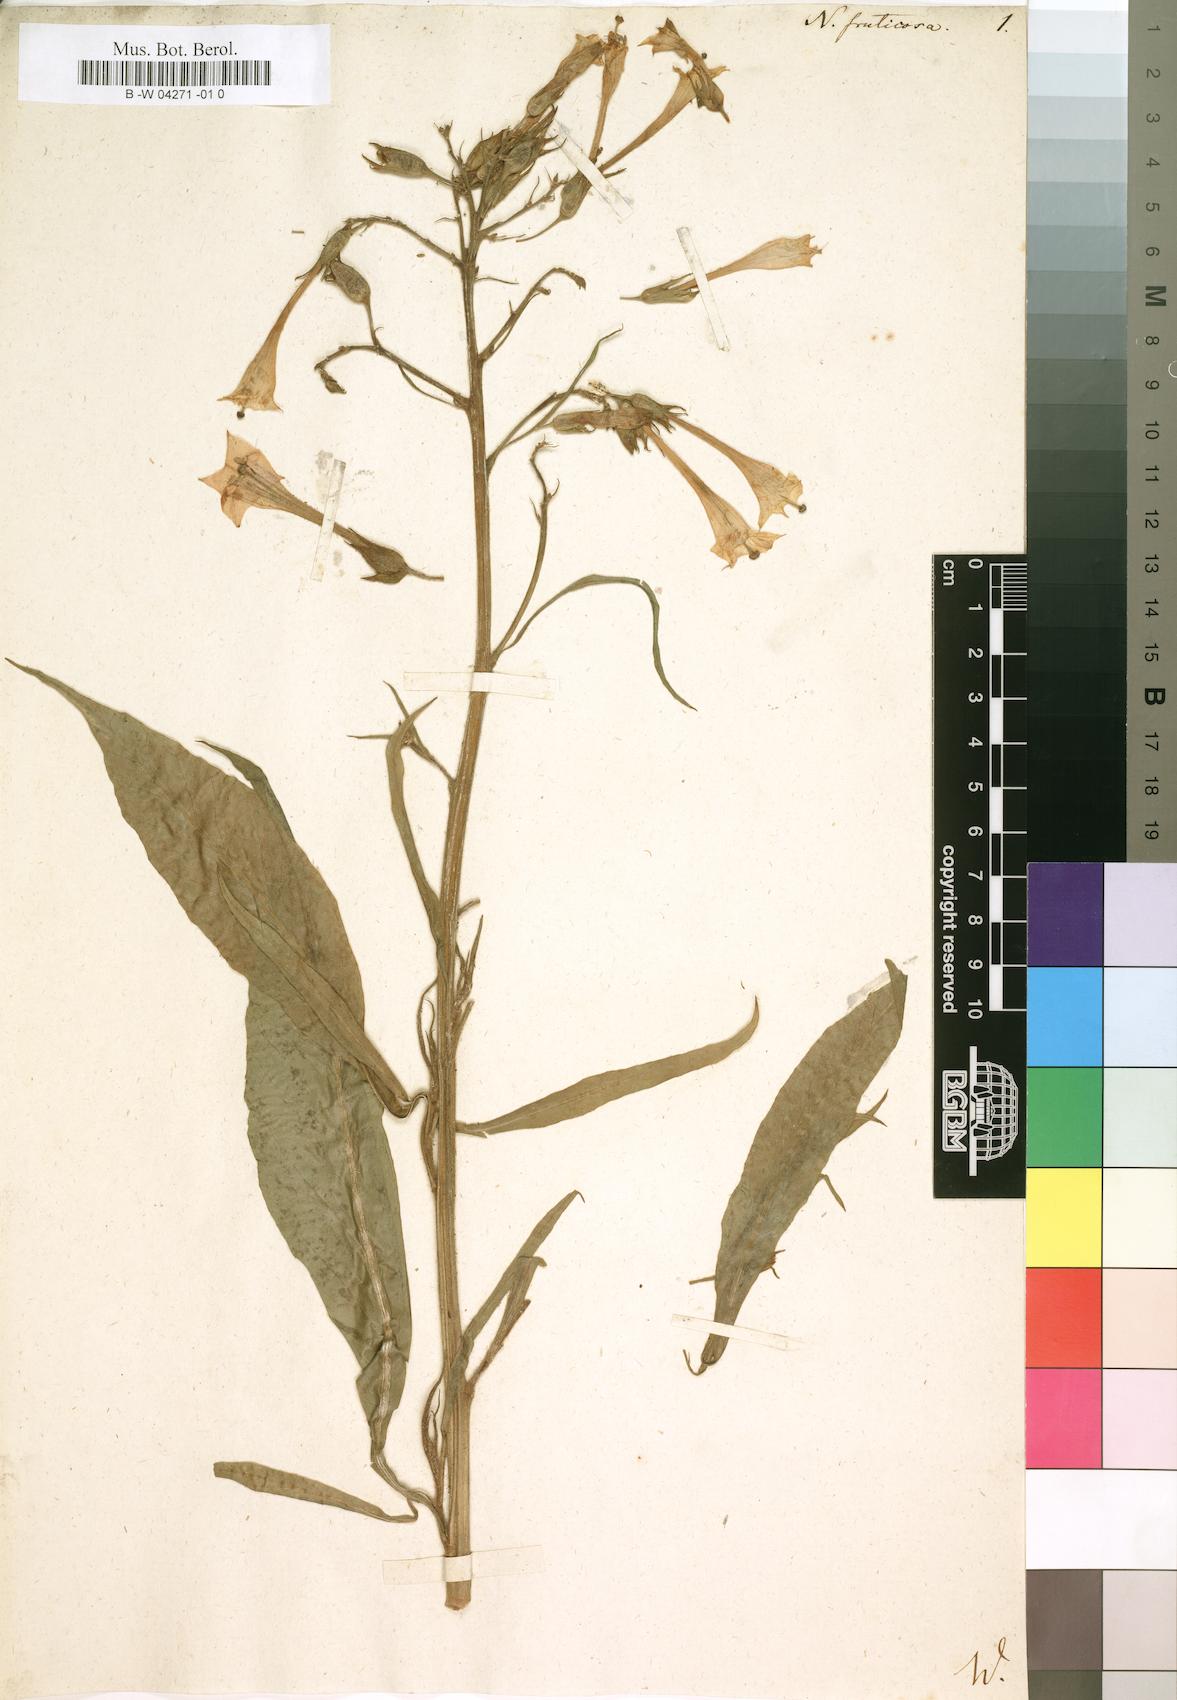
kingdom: Plantae
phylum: Tracheophyta
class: Magnoliopsida
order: Solanales
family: Solanaceae
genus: Nicotiana
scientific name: Nicotiana fruticosa
